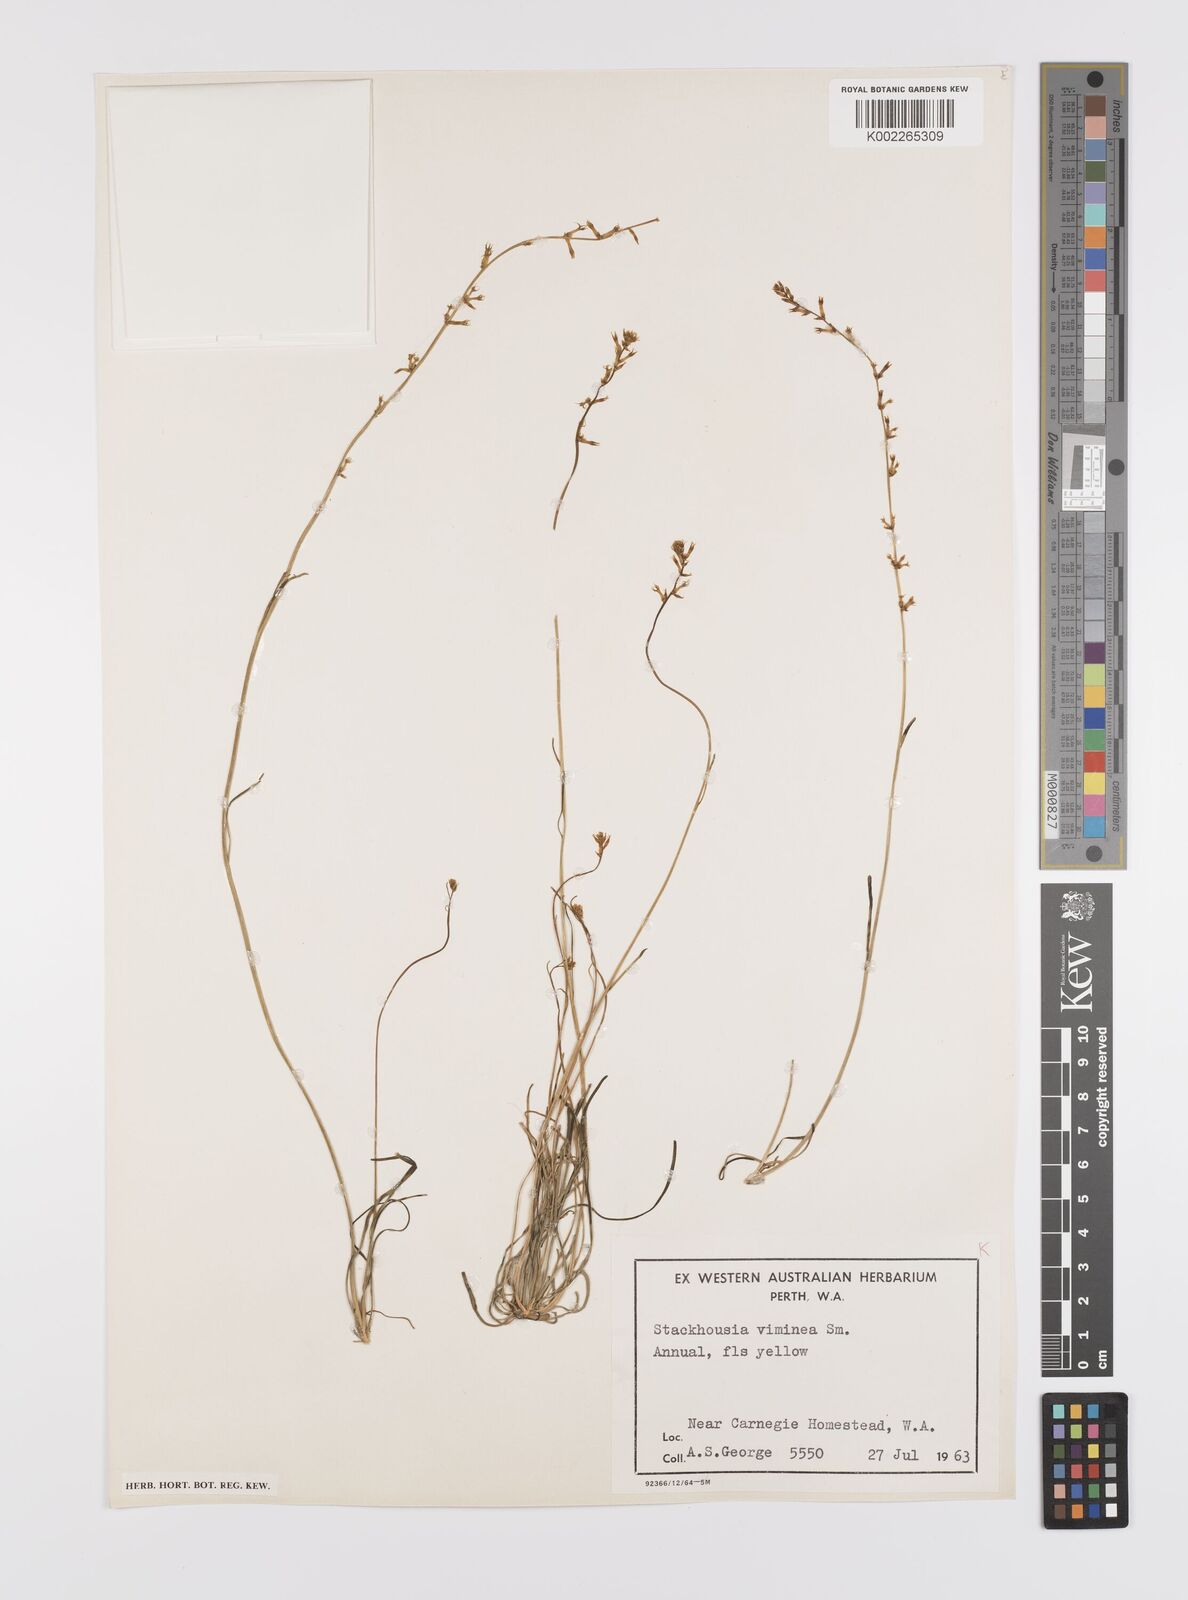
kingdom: Plantae
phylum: Tracheophyta
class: Magnoliopsida
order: Celastrales
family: Celastraceae
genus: Stackhousia
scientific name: Stackhousia viminea
